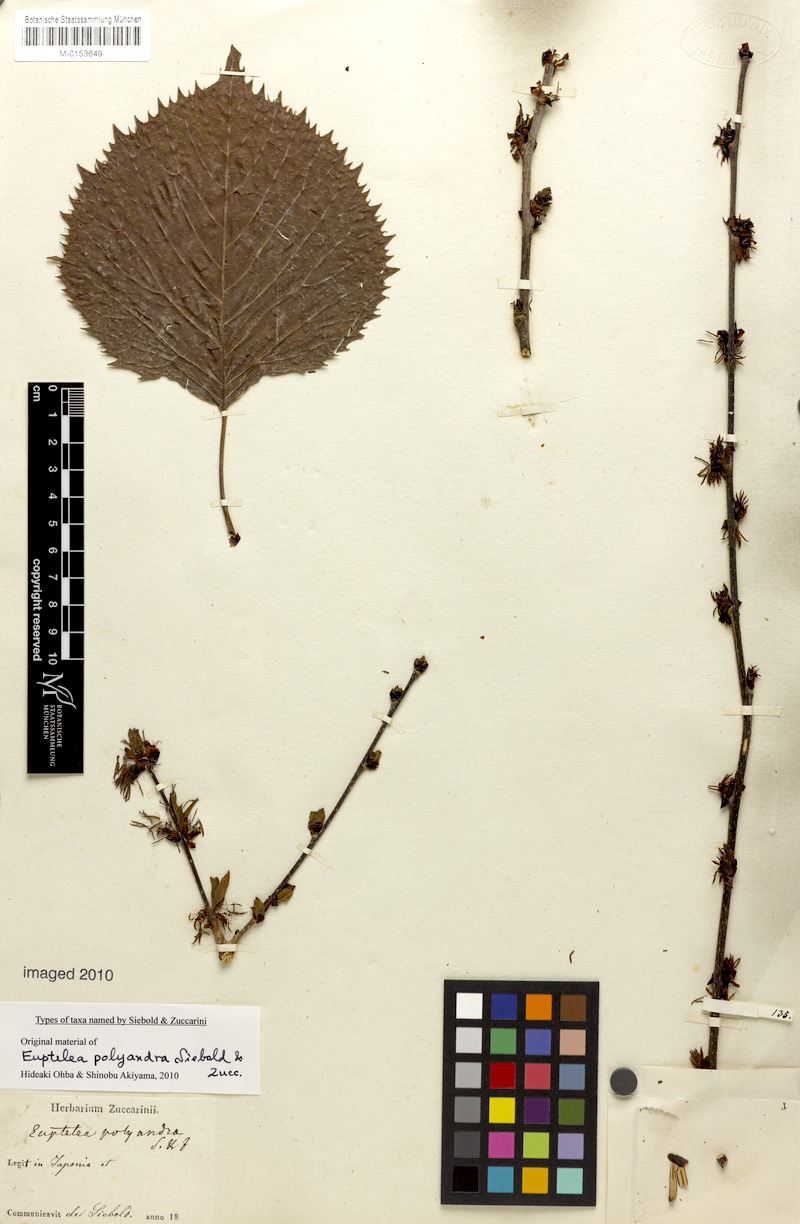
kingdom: Plantae
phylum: Tracheophyta
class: Magnoliopsida
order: Ranunculales
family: Eupteleaceae
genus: Euptelea
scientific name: Euptelea polyandra
